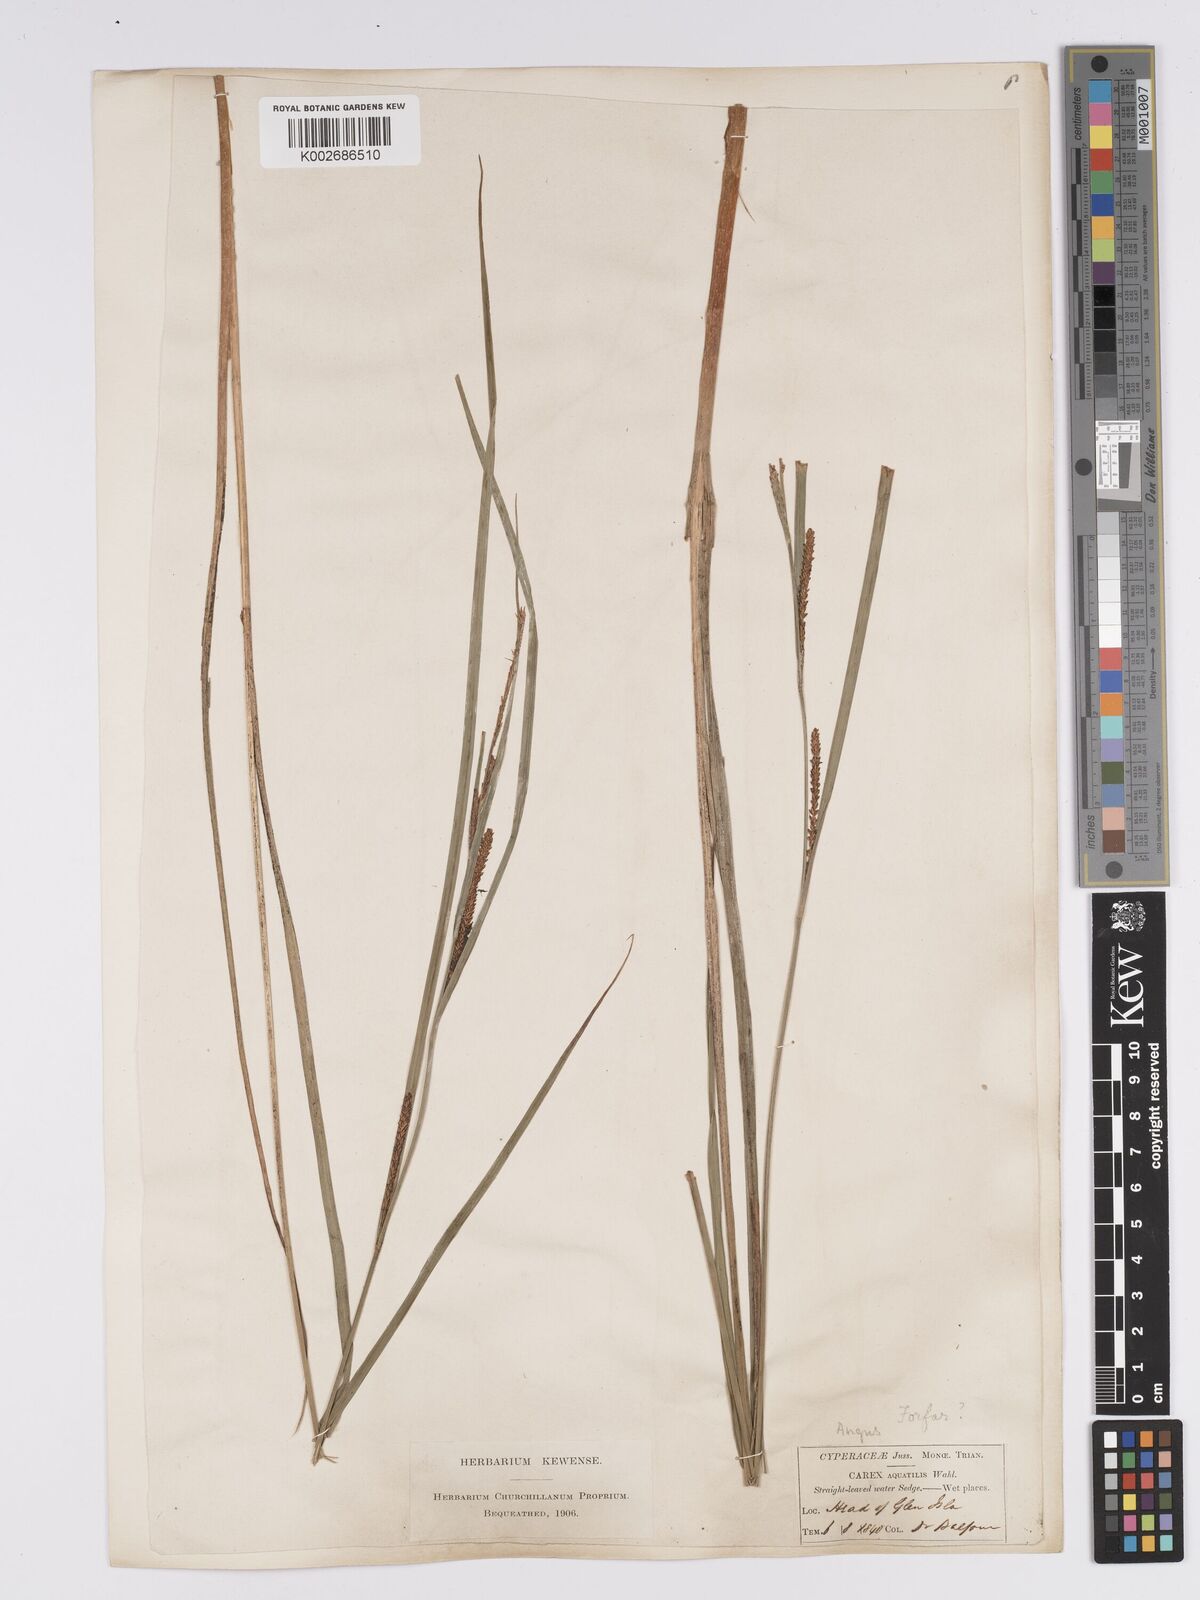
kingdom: Plantae
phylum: Tracheophyta
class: Liliopsida
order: Poales
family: Cyperaceae
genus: Carex
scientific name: Carex aquatilis
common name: Water sedge
